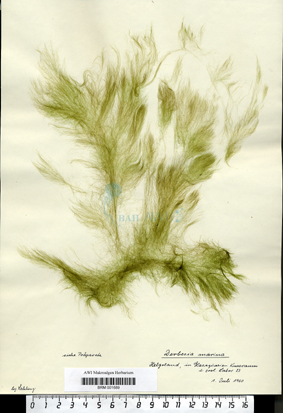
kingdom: Plantae
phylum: Chlorophyta
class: Ulvophyceae
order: Bryopsidales
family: Derbesiaceae
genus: Derbesia
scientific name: Derbesia marina
